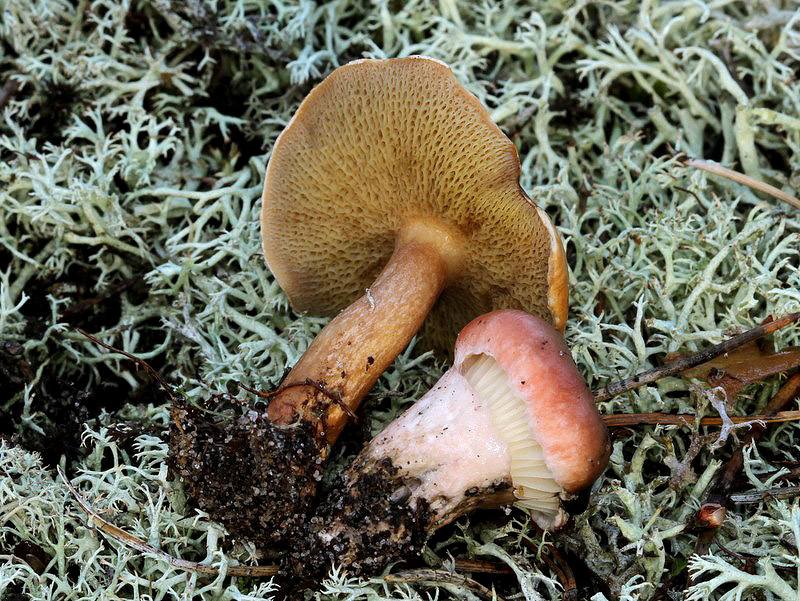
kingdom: Fungi
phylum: Basidiomycota
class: Agaricomycetes
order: Boletales
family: Gomphidiaceae
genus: Gomphidius
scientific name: Gomphidius roseus
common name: rosenrød slimslør
